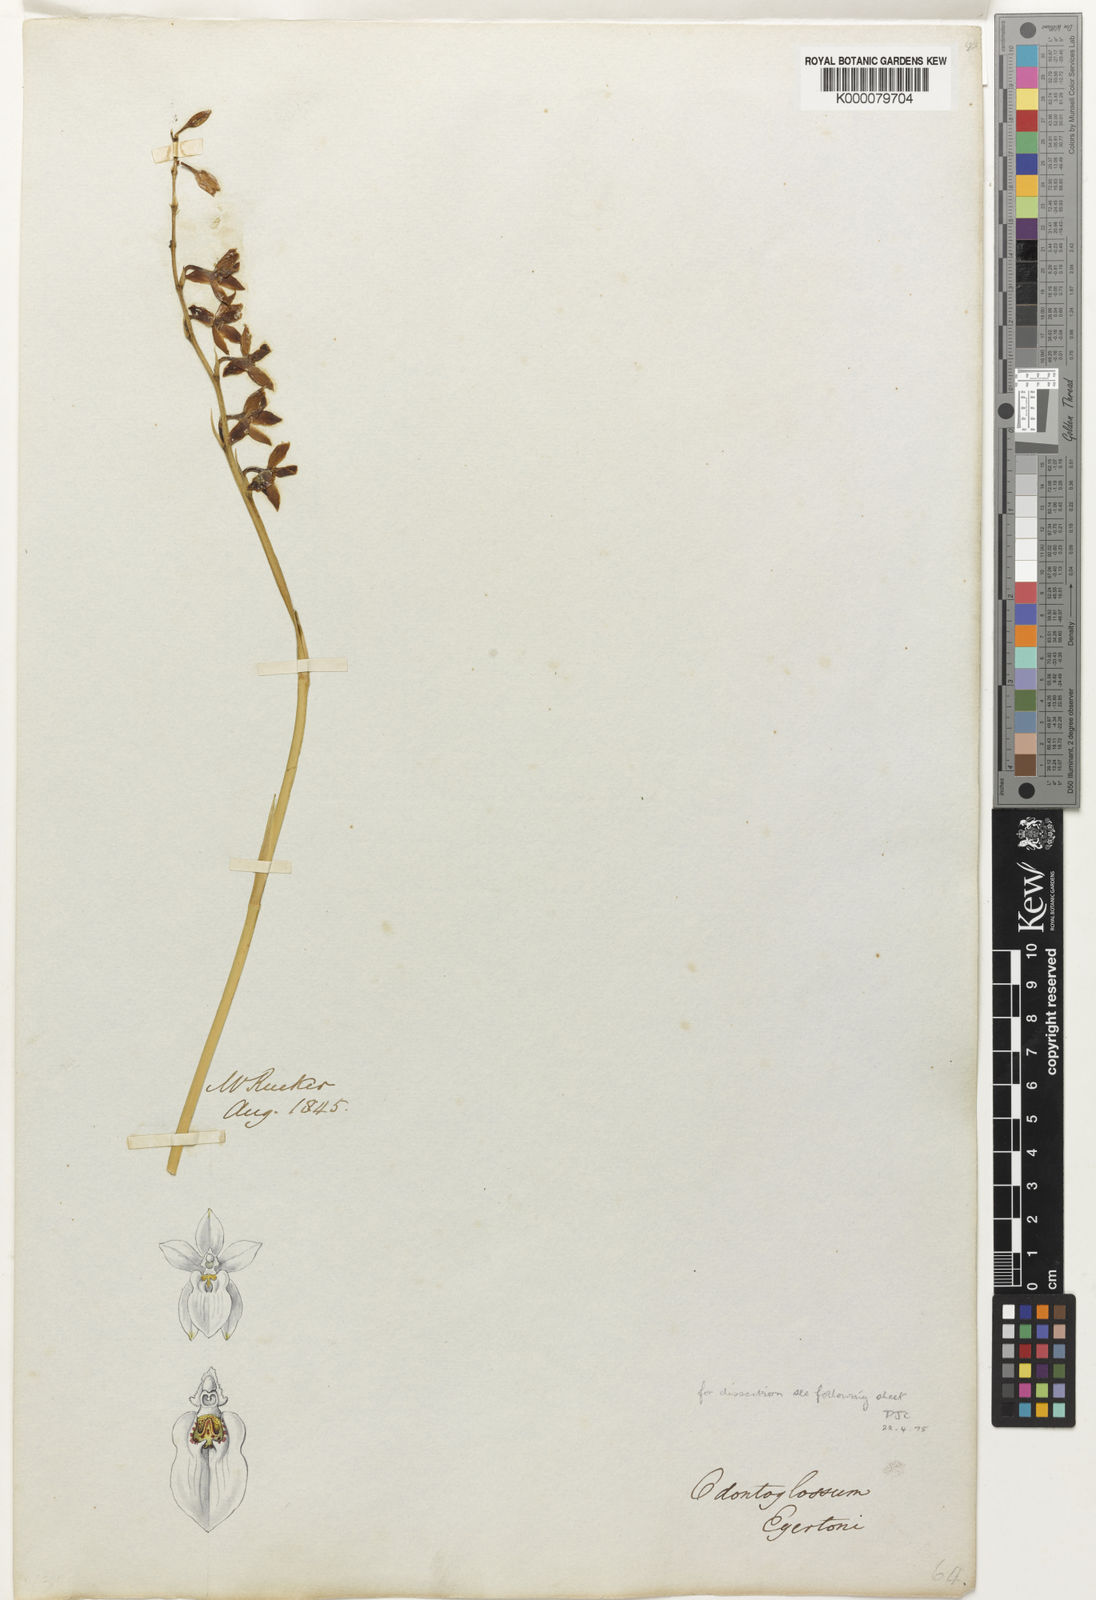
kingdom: Plantae
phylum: Tracheophyta
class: Liliopsida
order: Asparagales
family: Orchidaceae
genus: Cuitlauzina
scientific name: Cuitlauzina egertonii
